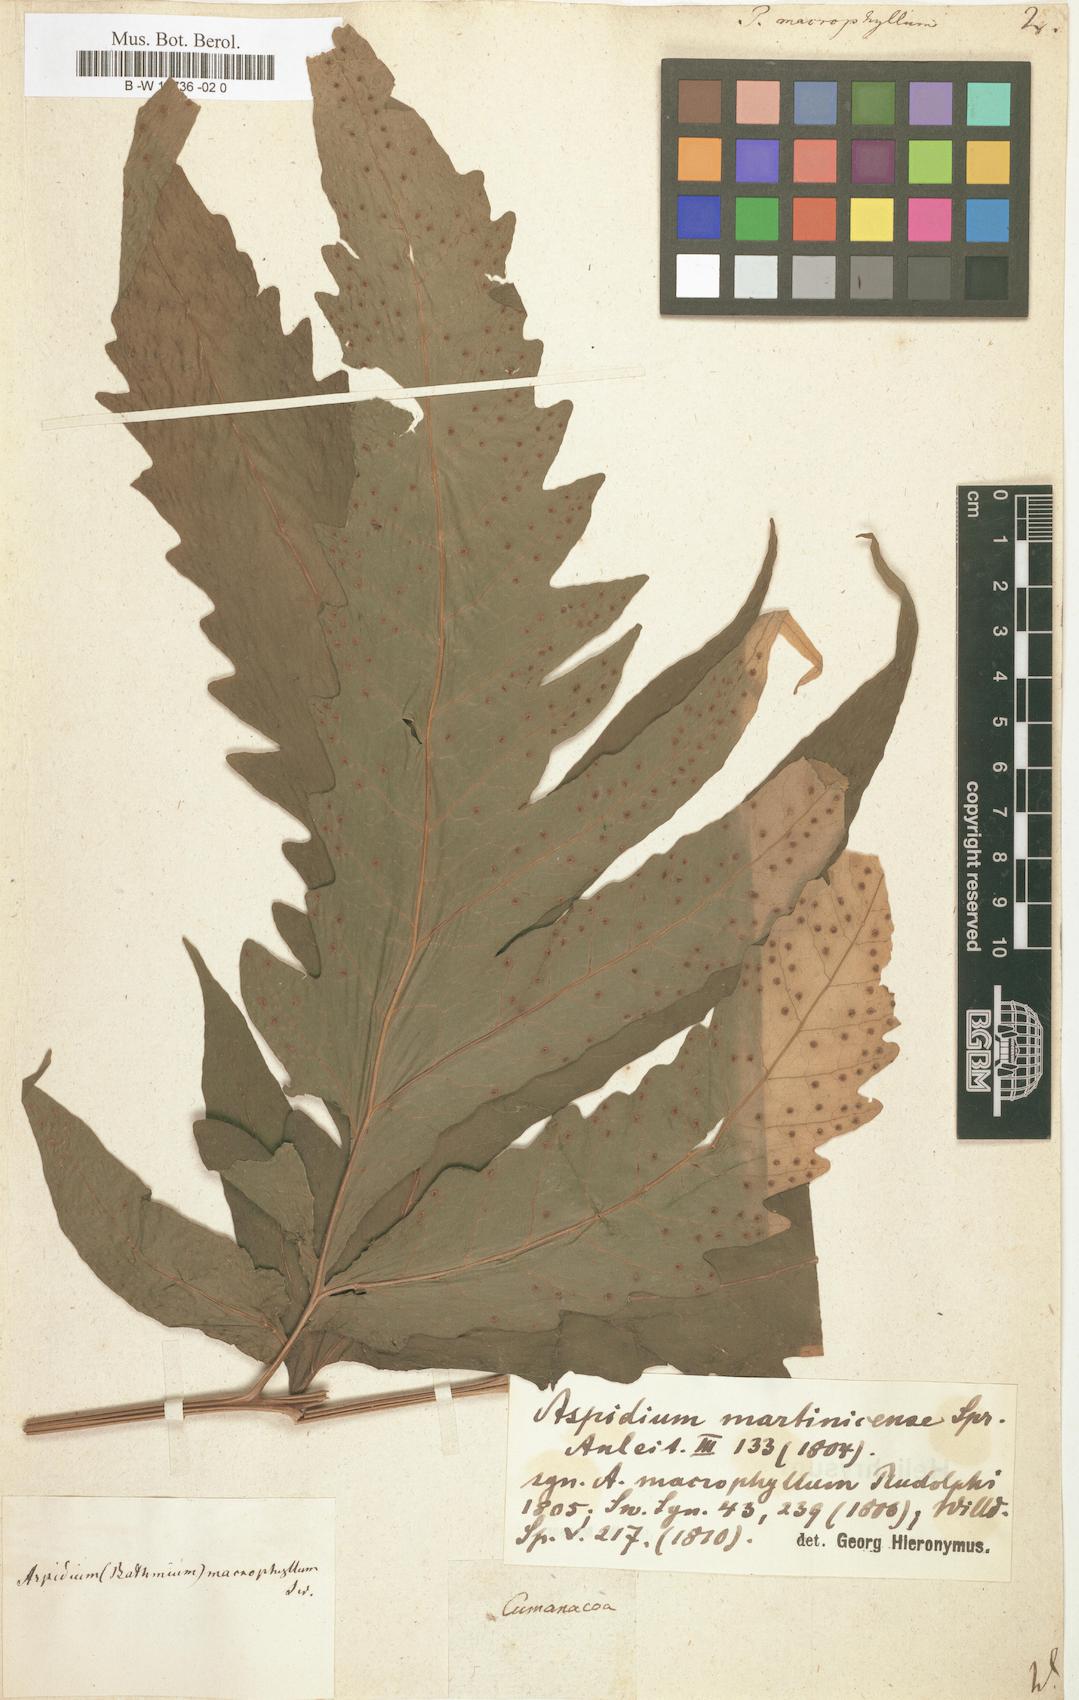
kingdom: Plantae
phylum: Tracheophyta
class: Polypodiopsida
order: Polypodiales
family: Tectariaceae
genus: Tectaria
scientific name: Tectaria incisa
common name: Incised halberd fern
